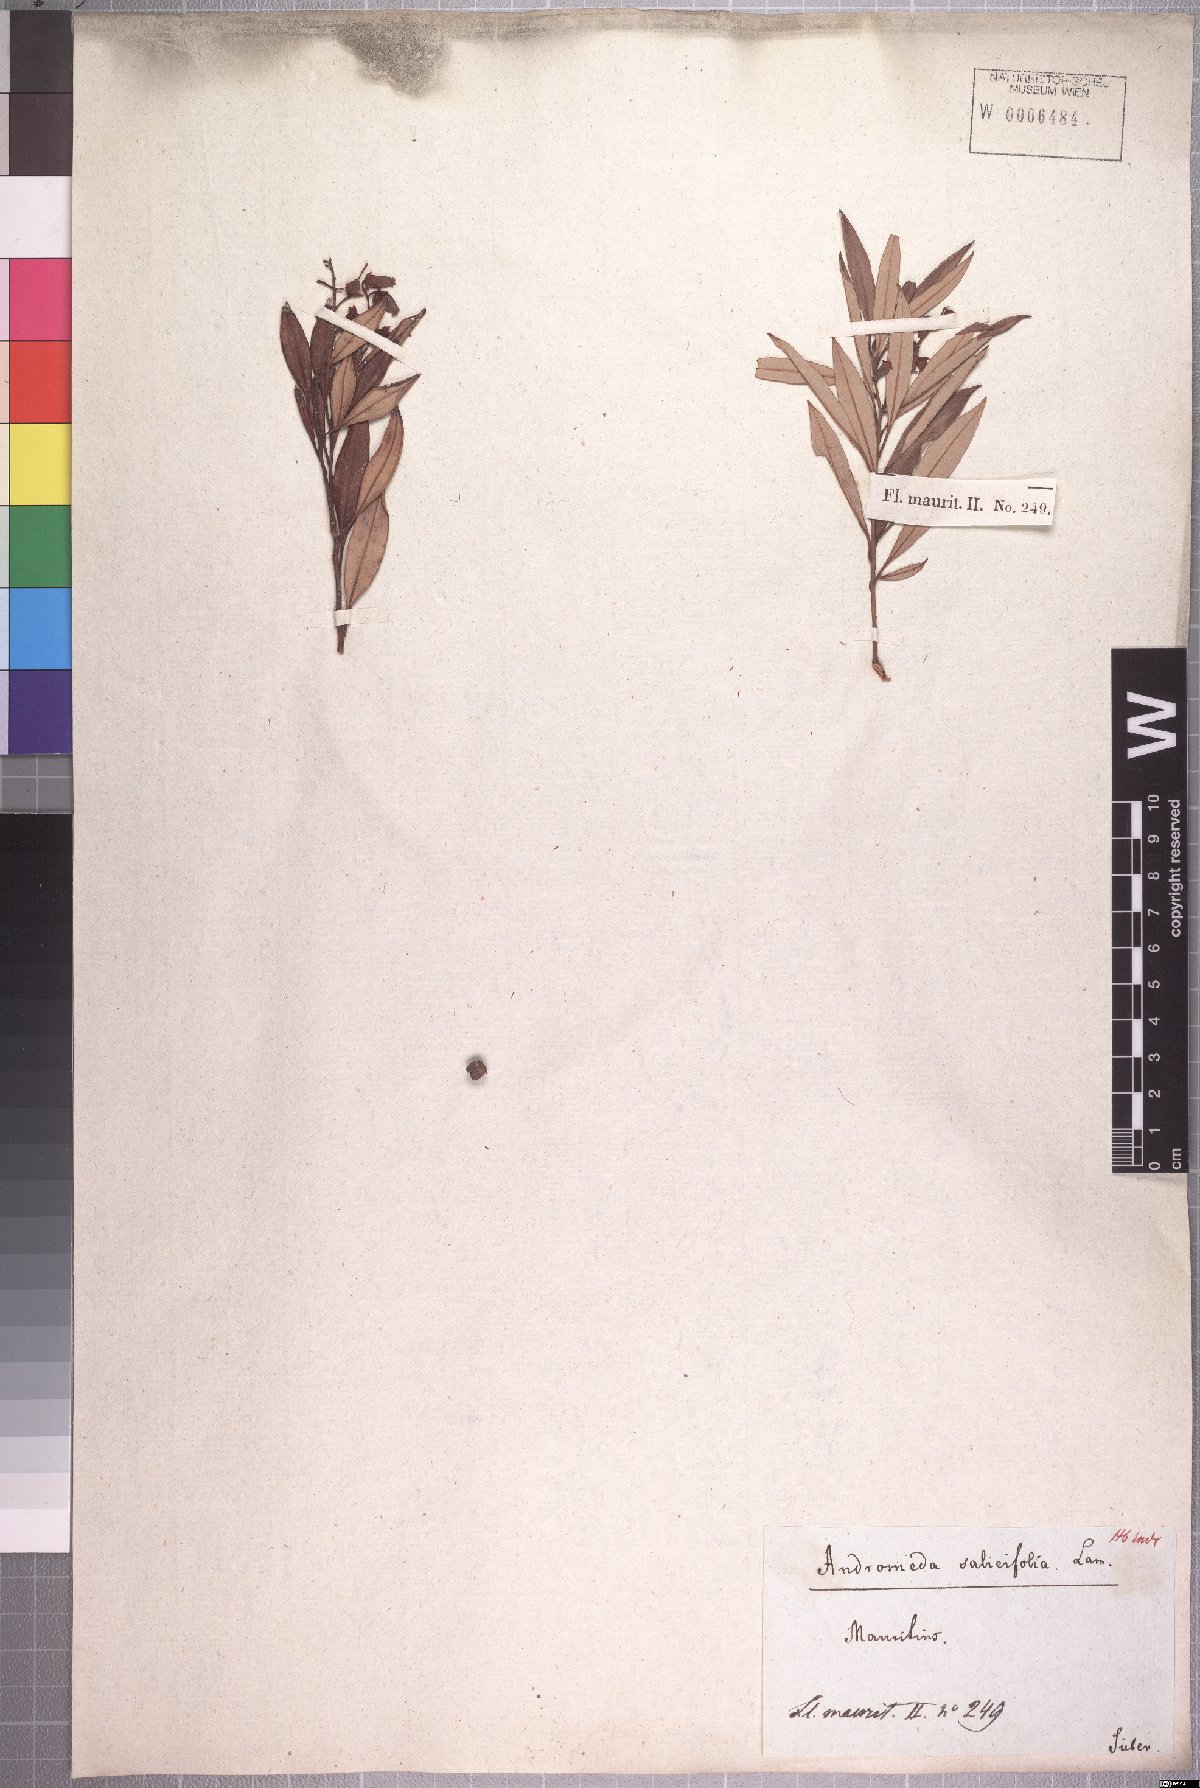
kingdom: Plantae
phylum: Tracheophyta
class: Magnoliopsida
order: Ericales
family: Ericaceae
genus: Agarista
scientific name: Agarista salicifolia
